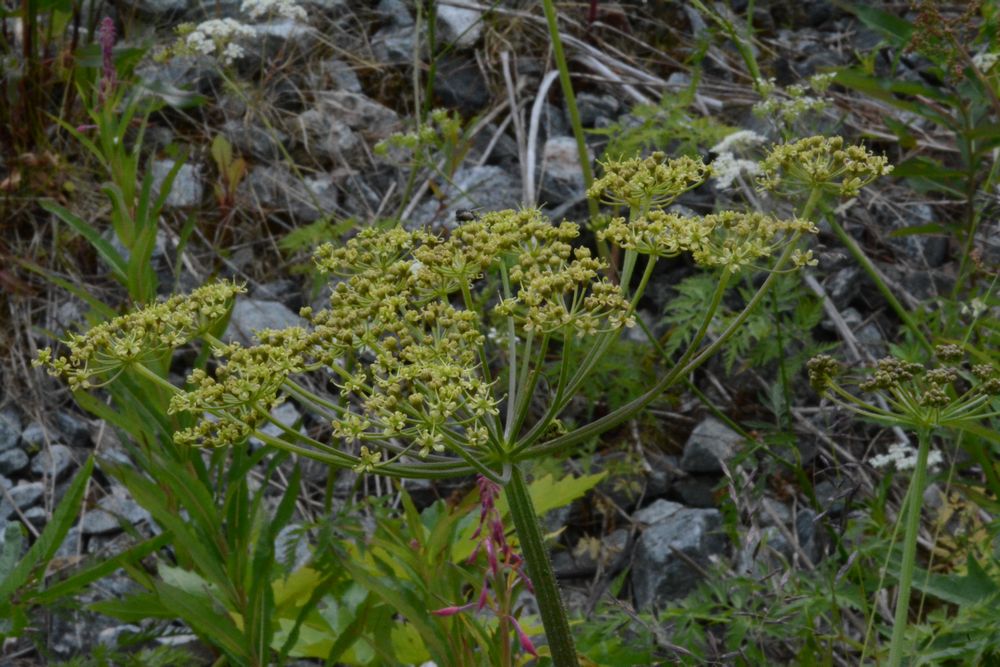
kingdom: Plantae
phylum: Tracheophyta
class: Magnoliopsida
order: Apiales
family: Apiaceae
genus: Heracleum
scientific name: Heracleum sphondylium
